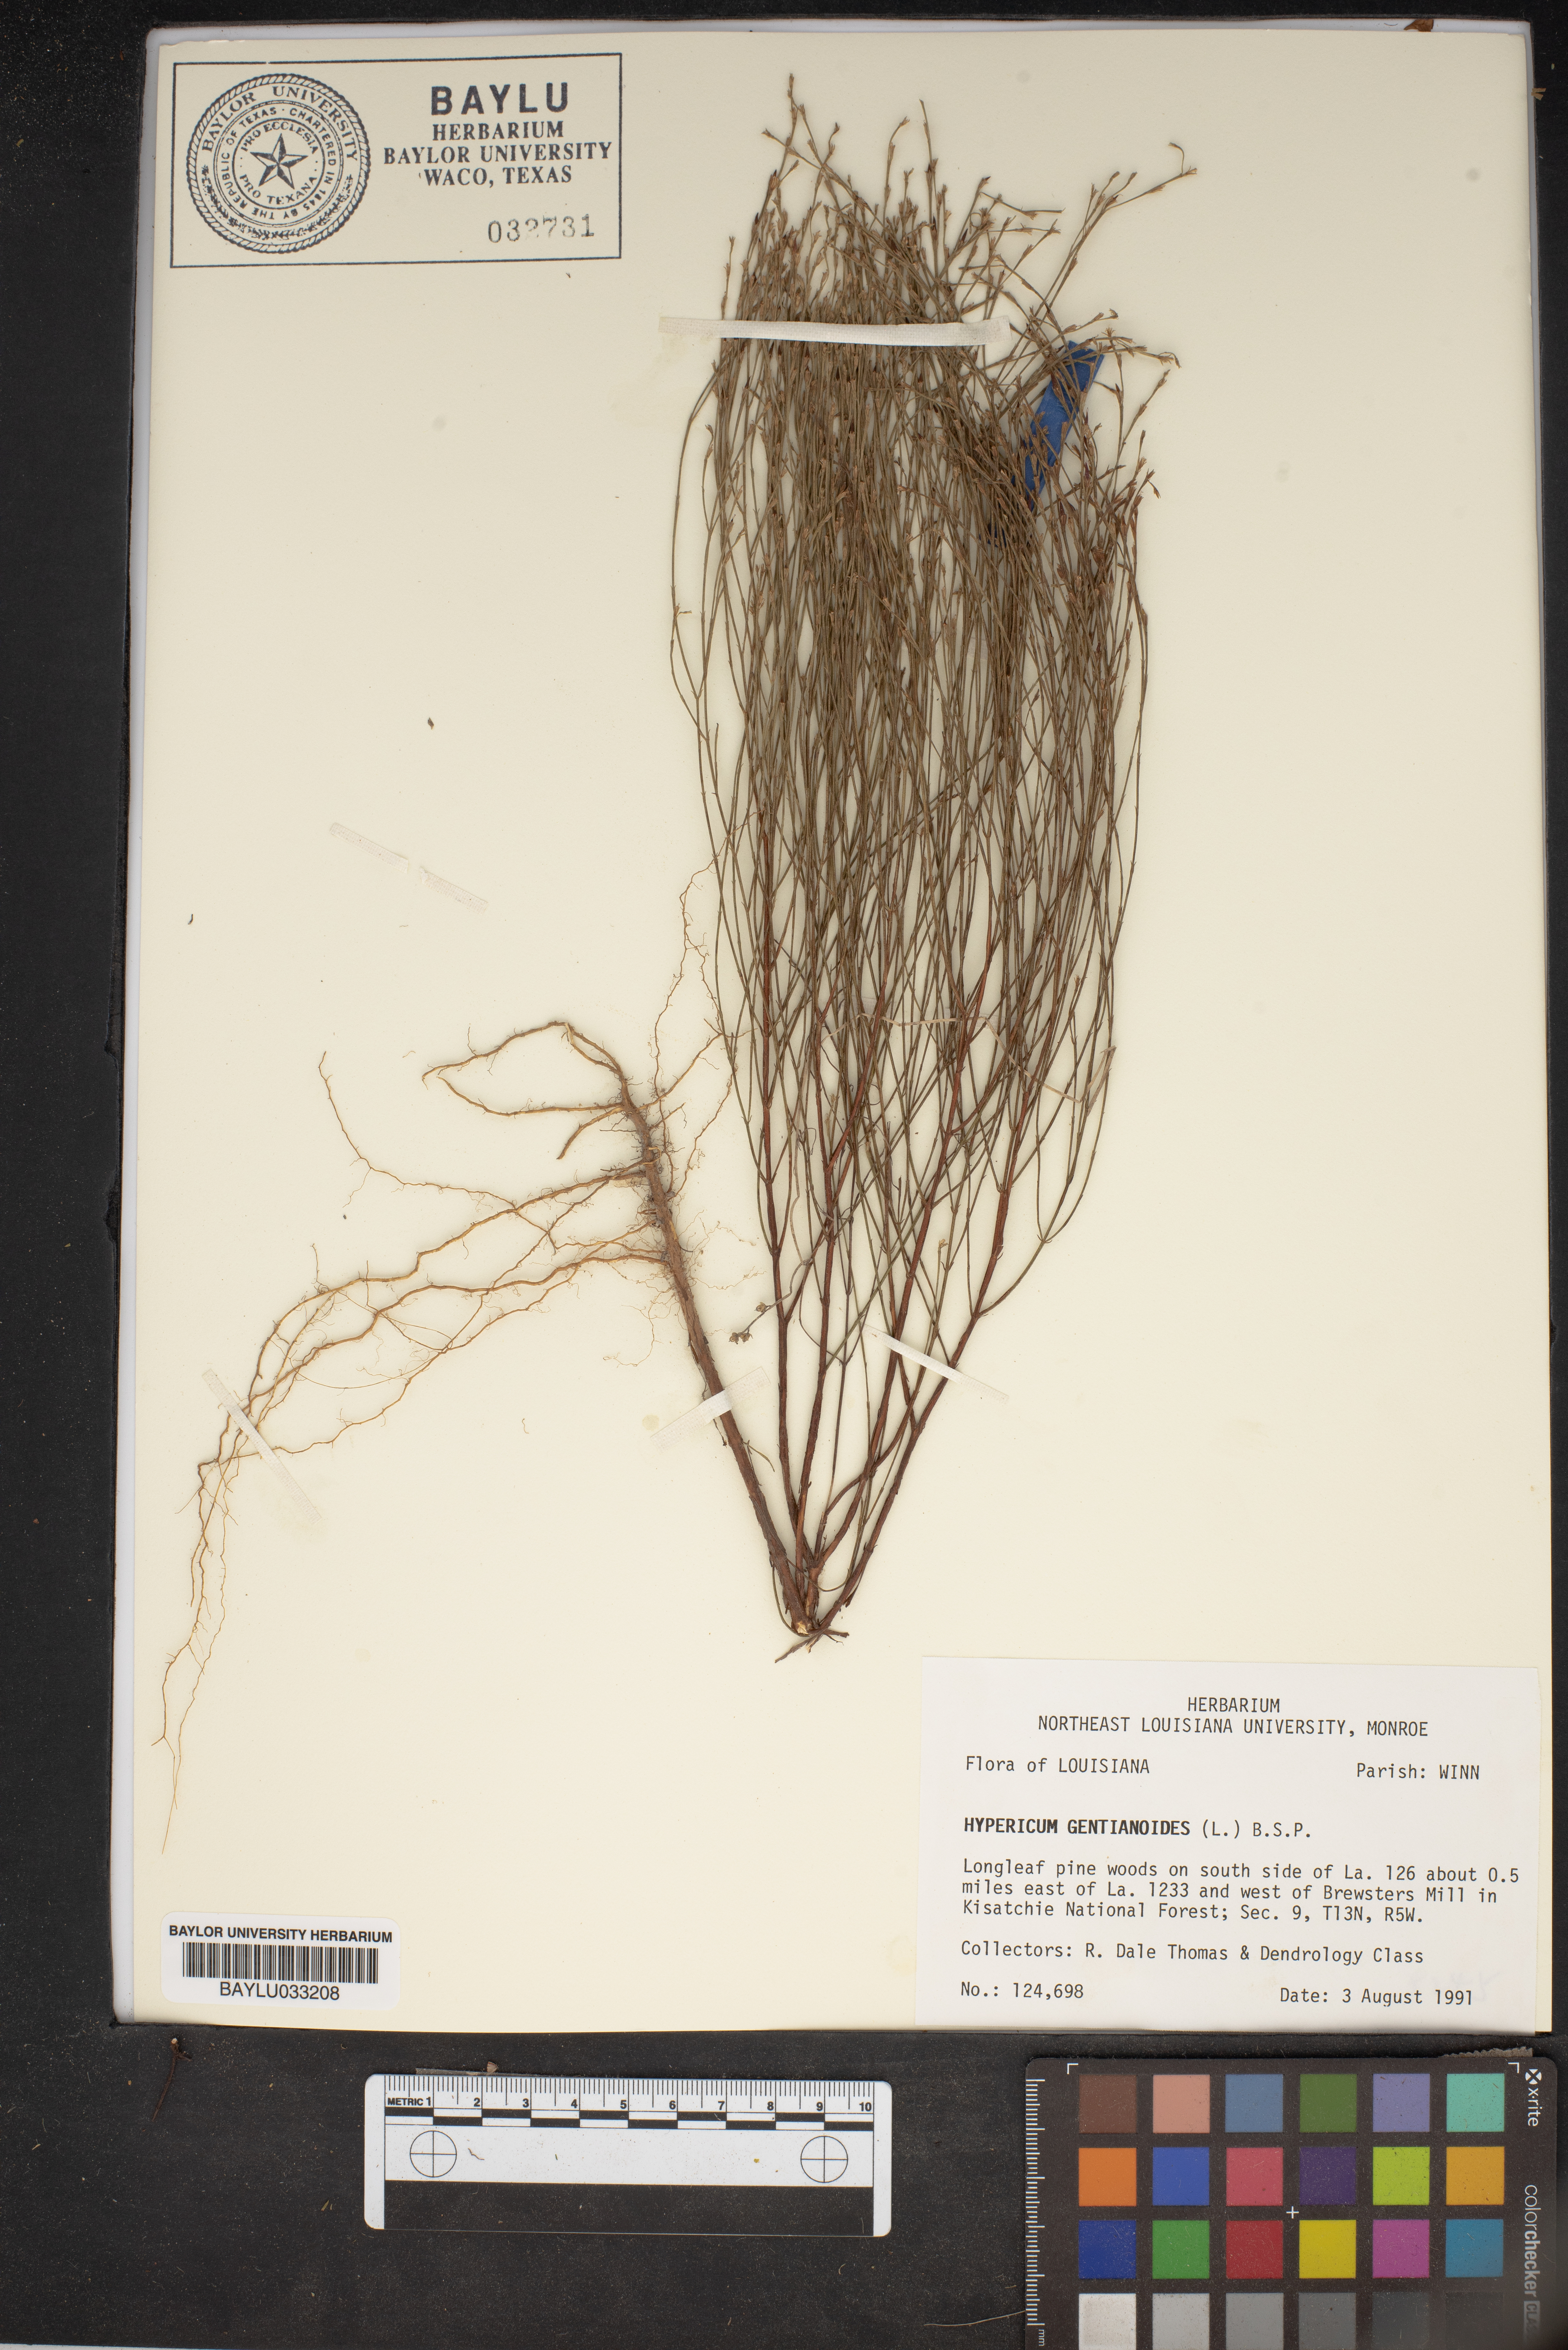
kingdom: Plantae
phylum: Tracheophyta
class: Magnoliopsida
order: Malpighiales
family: Hypericaceae
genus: Hypericum
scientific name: Hypericum gentianoides
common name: Gentian-leaved st. john's-wort
